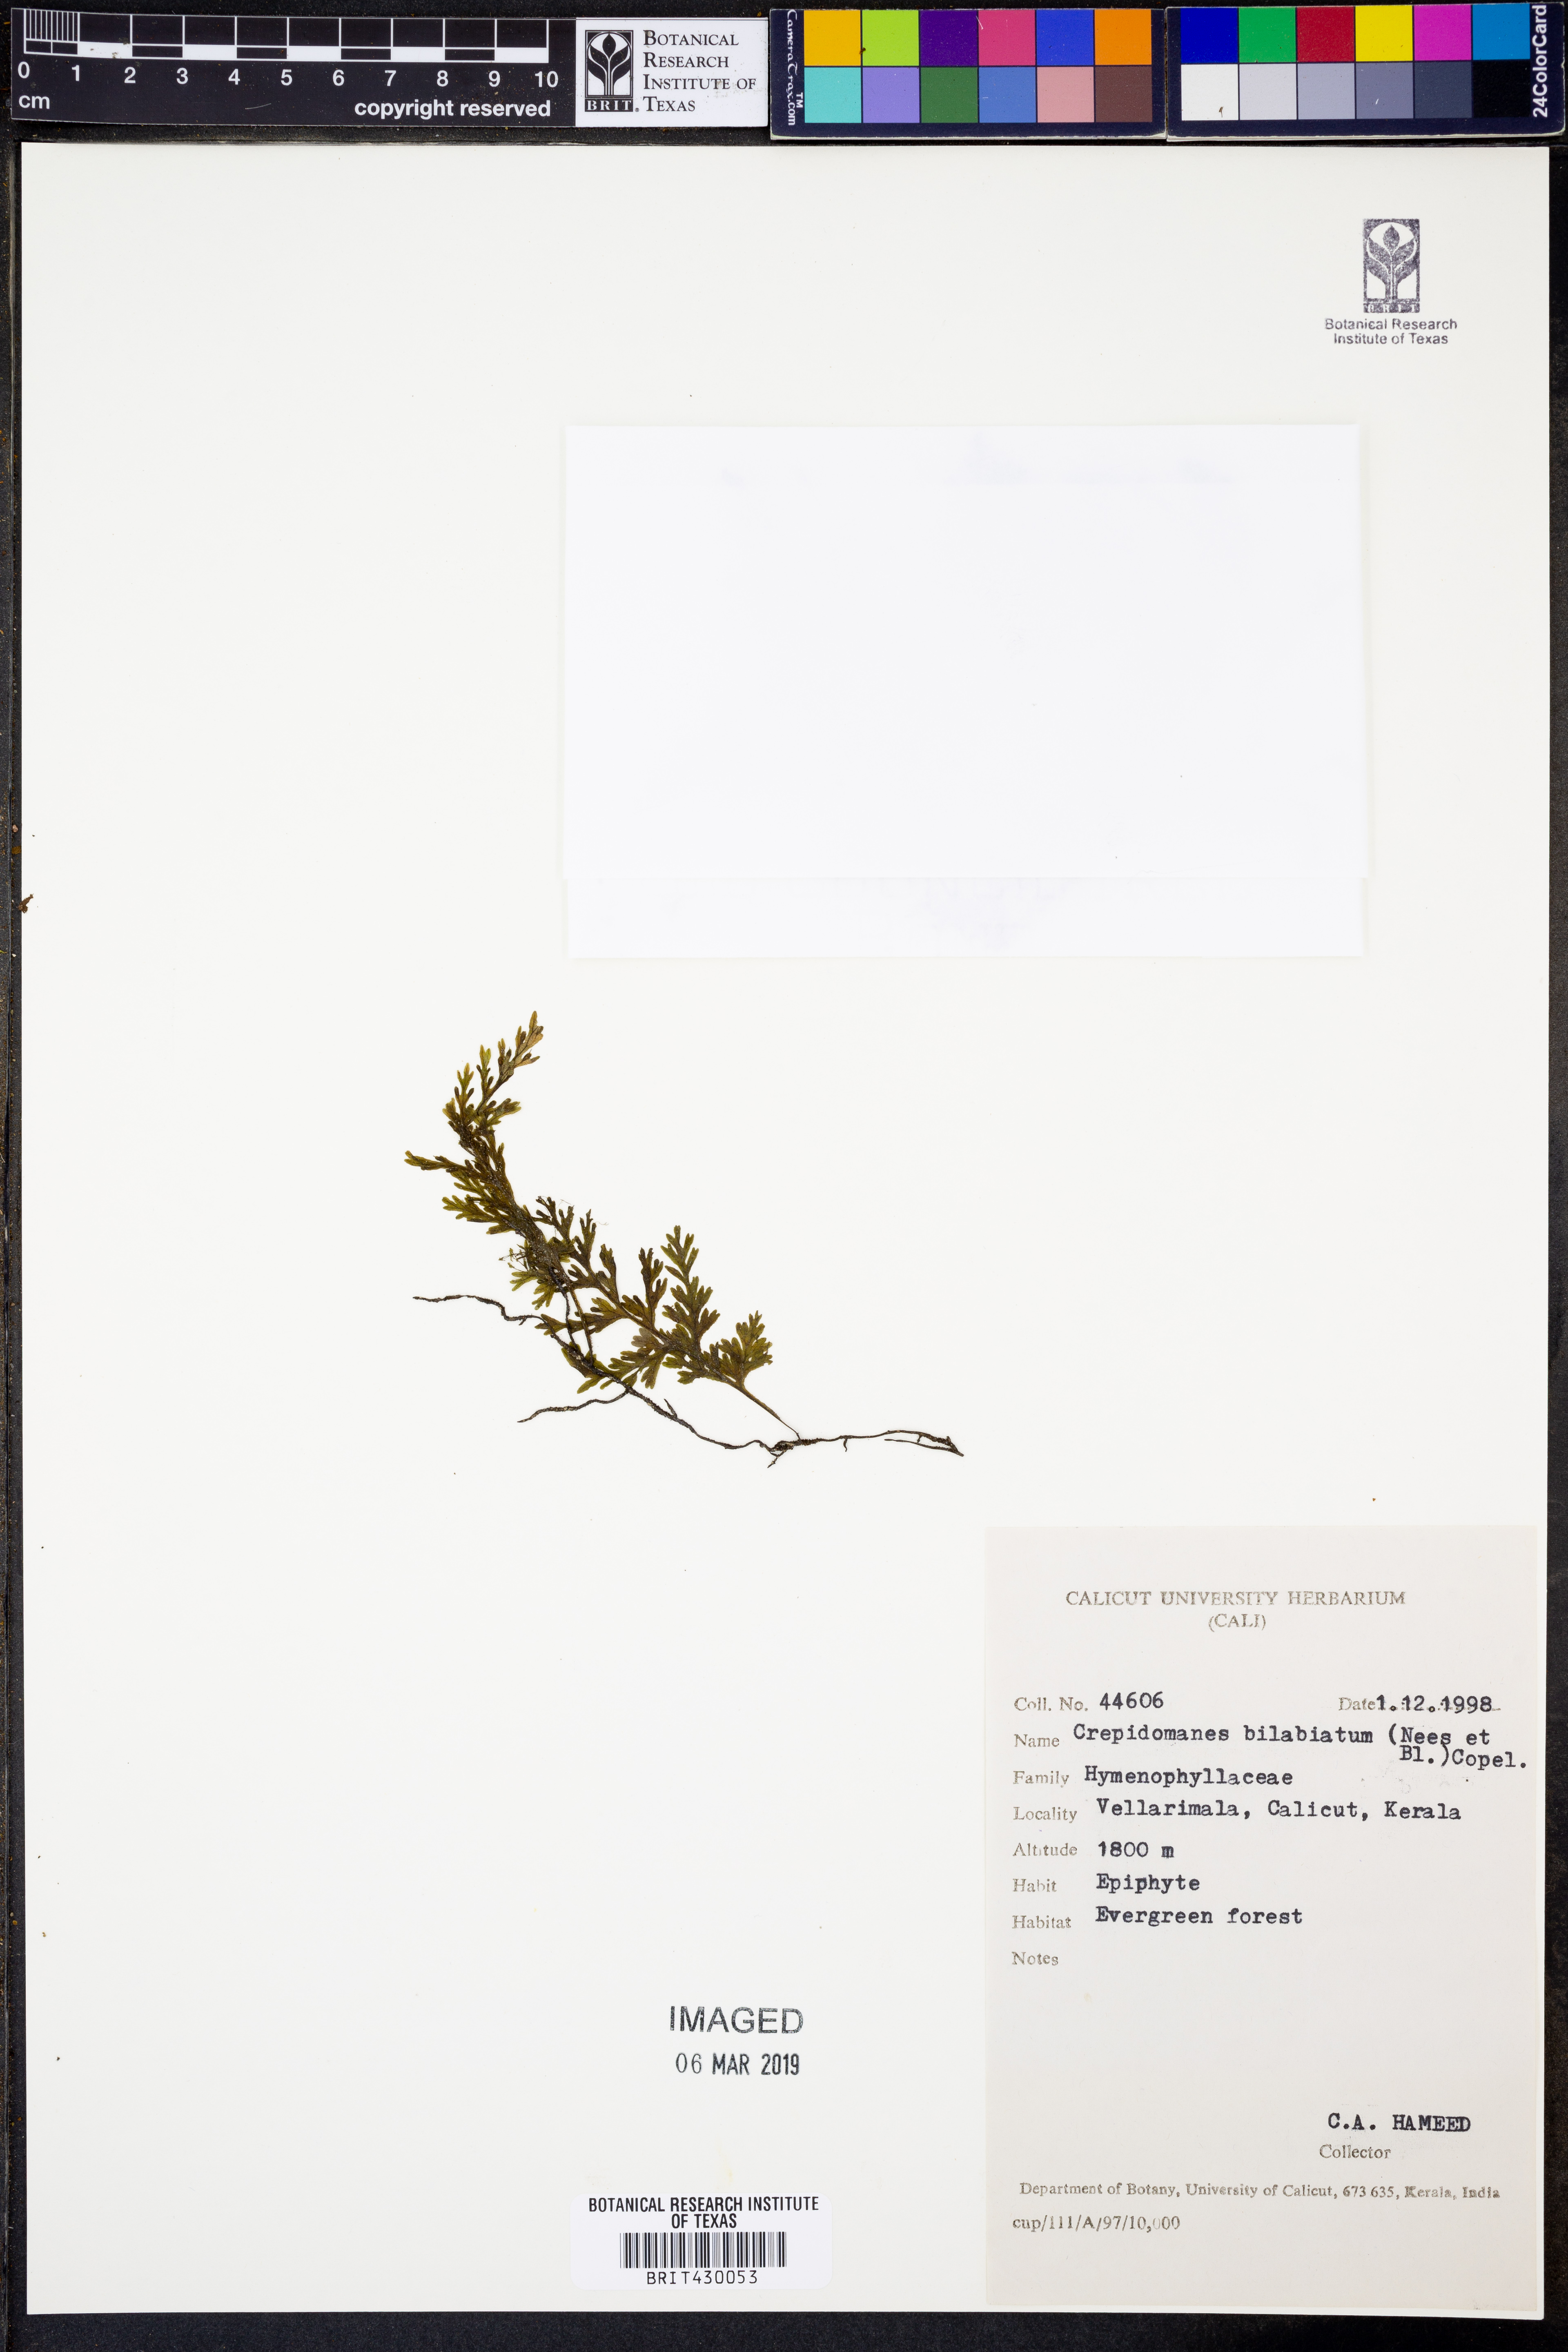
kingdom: Plantae
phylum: Tracheophyta
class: Polypodiopsida
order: Hymenophyllales
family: Hymenophyllaceae
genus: Crepidomanes
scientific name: Crepidomanes bilabiatum
